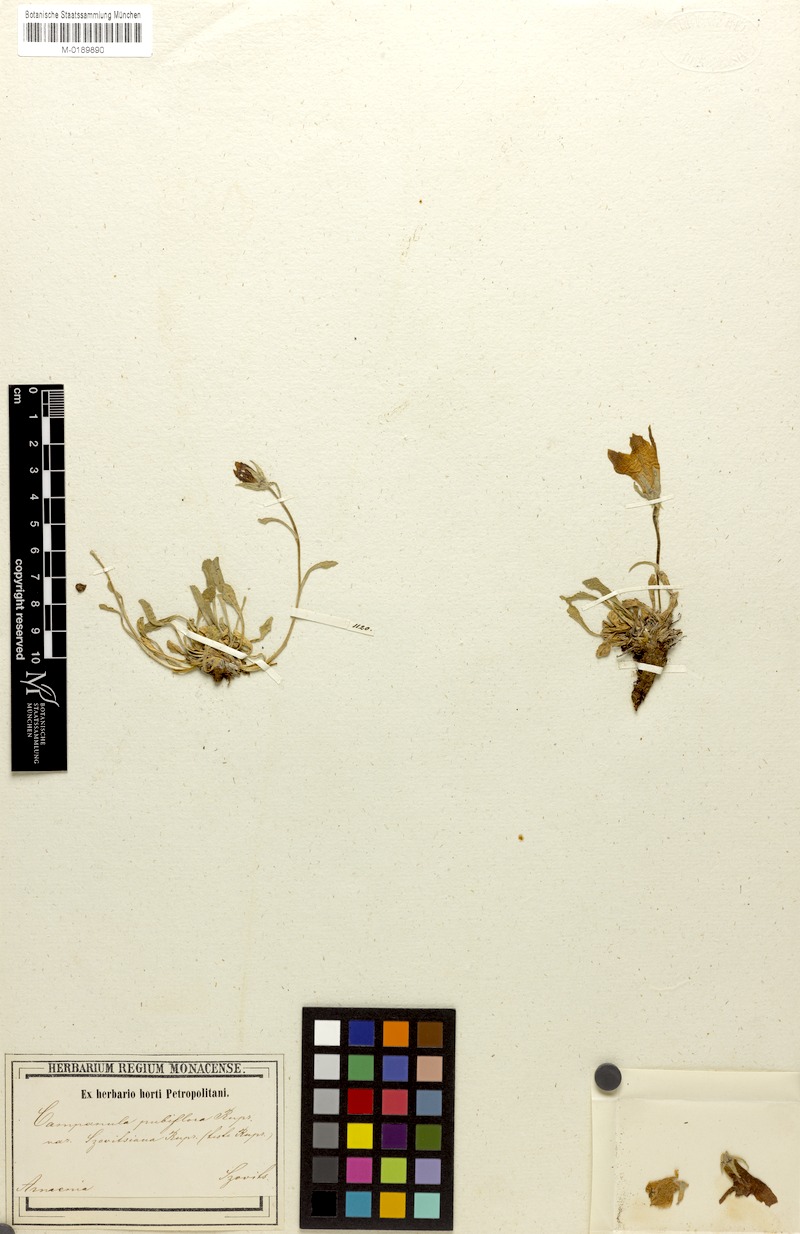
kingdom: Plantae
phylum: Tracheophyta
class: Magnoliopsida
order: Asterales
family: Campanulaceae
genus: Campanula
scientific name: Campanula saxifraga
